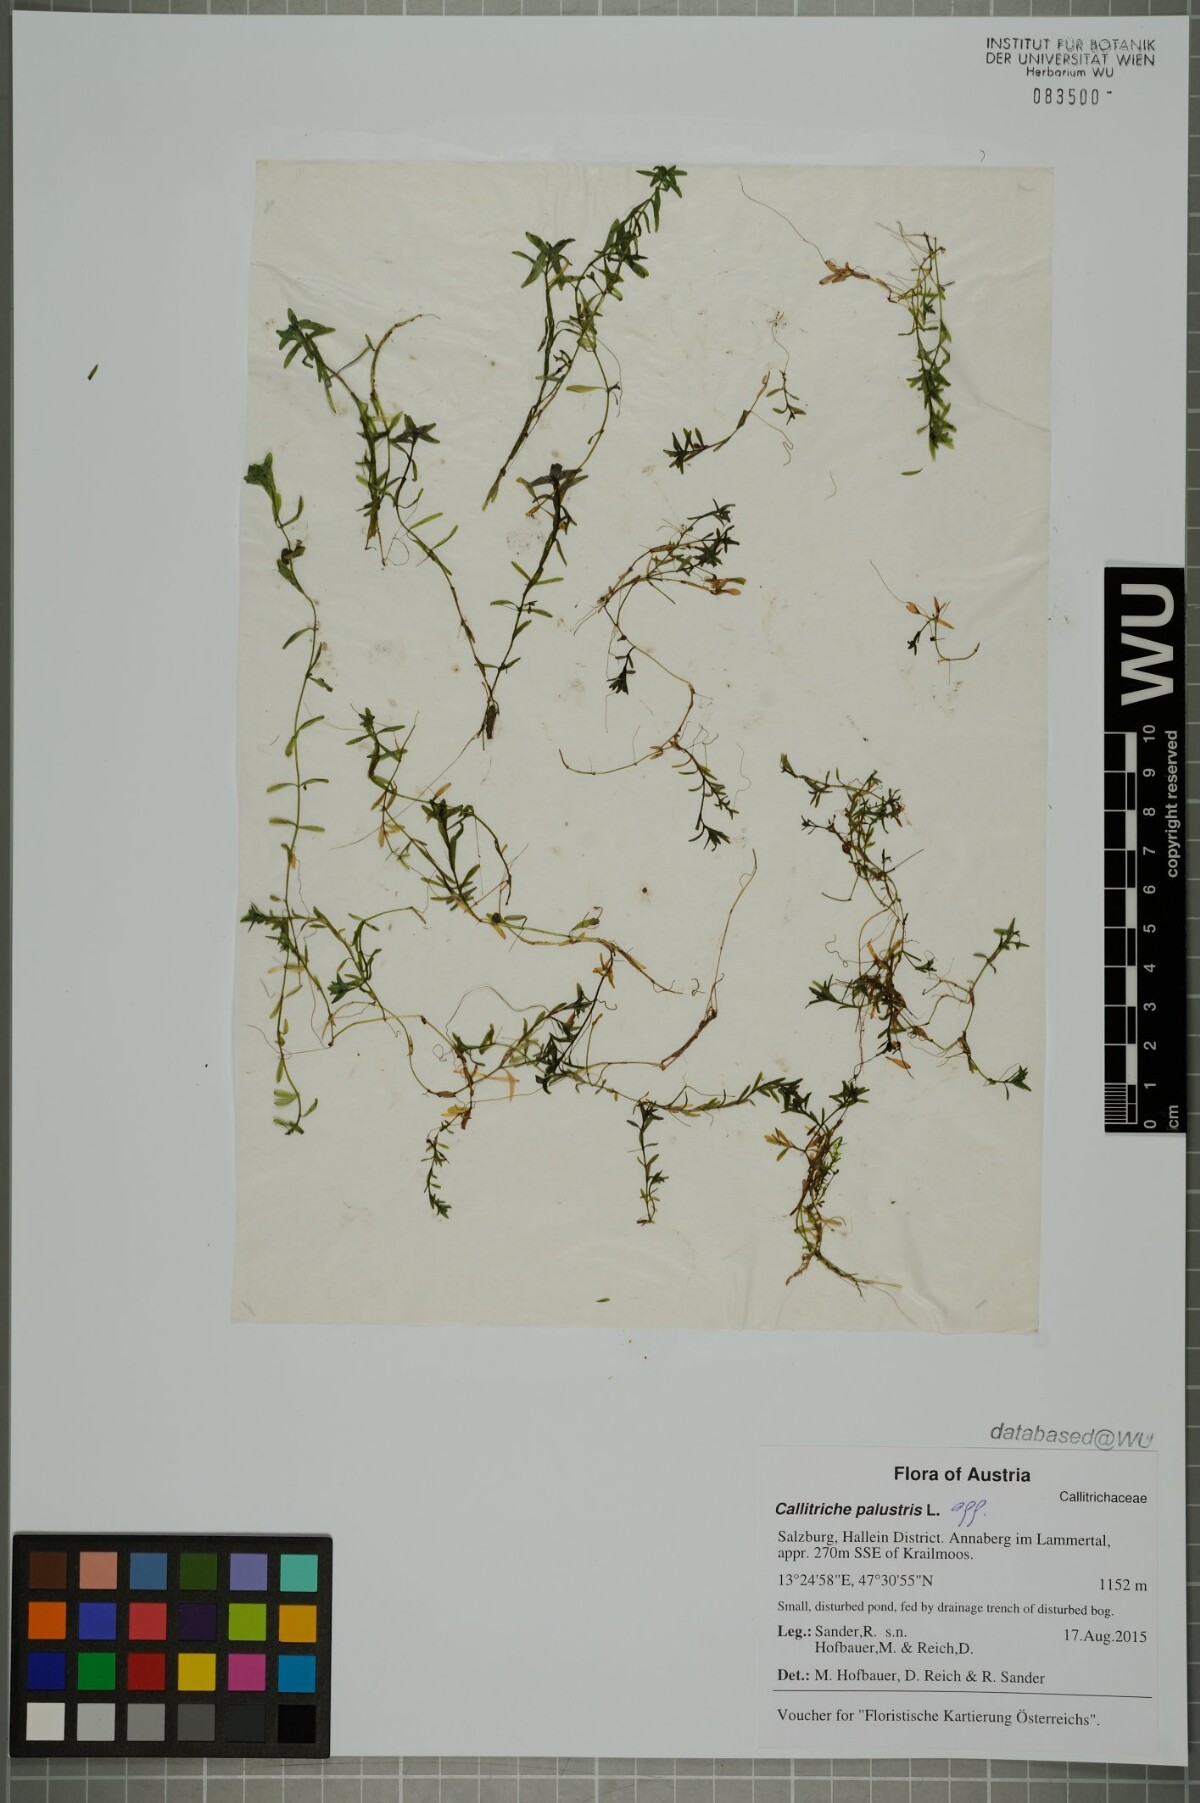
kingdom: Plantae
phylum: Tracheophyta
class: Magnoliopsida
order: Lamiales
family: Plantaginaceae
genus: Callitriche
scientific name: Callitriche palustris
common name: Spring water-starwort
